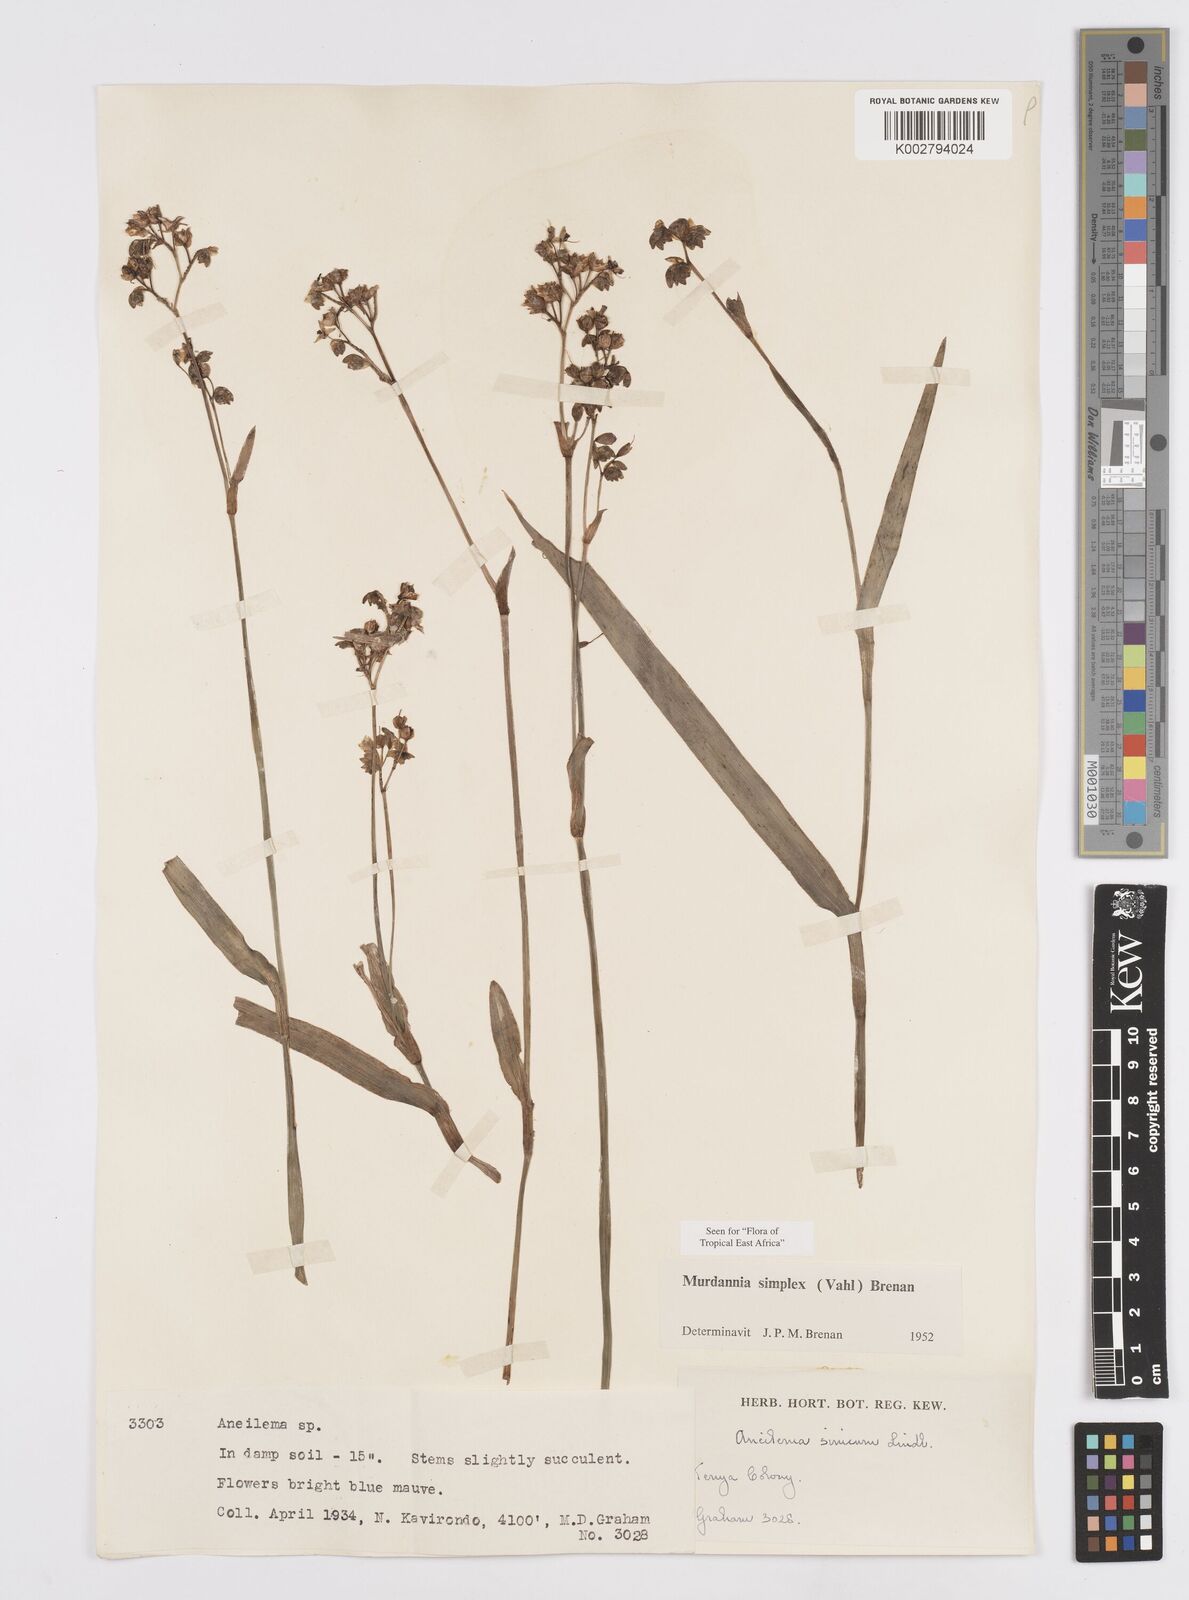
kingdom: Plantae
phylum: Tracheophyta
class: Liliopsida
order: Commelinales
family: Commelinaceae
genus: Murdannia
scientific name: Murdannia simplex
